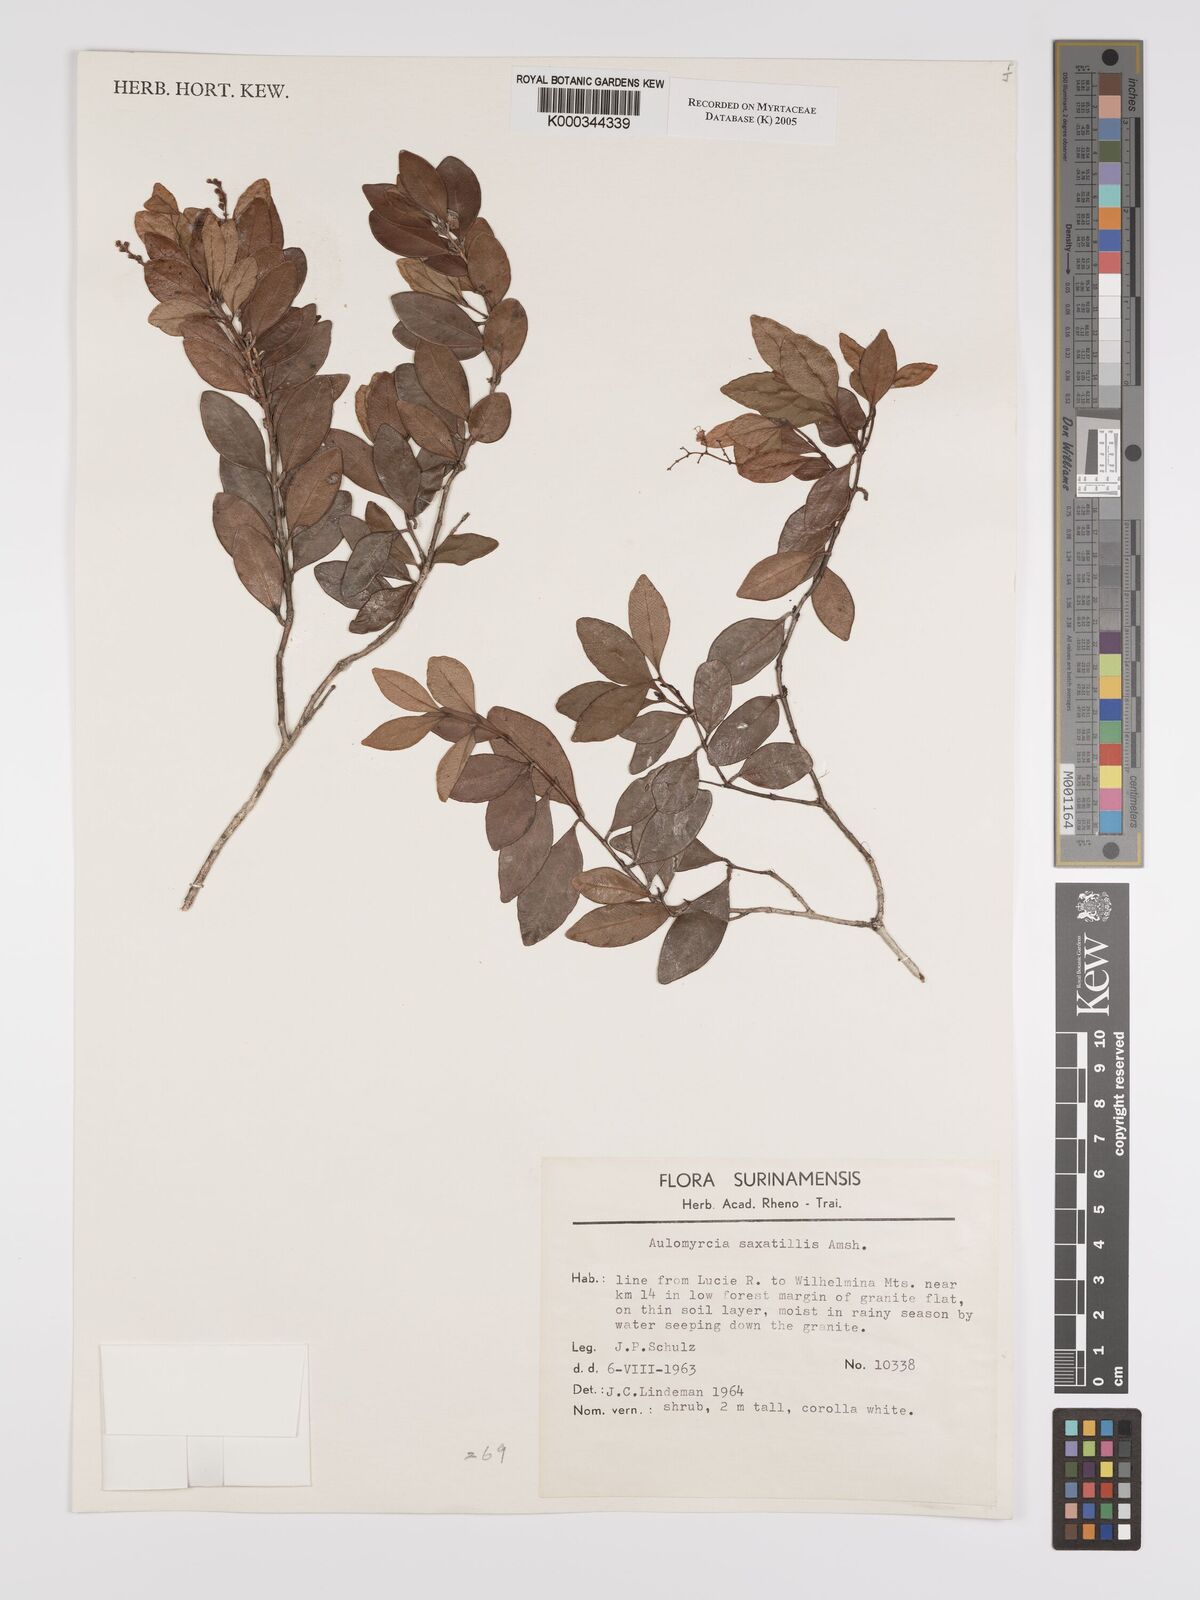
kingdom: Plantae
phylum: Tracheophyta
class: Magnoliopsida
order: Myrtales
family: Myrtaceae
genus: Myrcia
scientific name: Myrcia saxatilis
